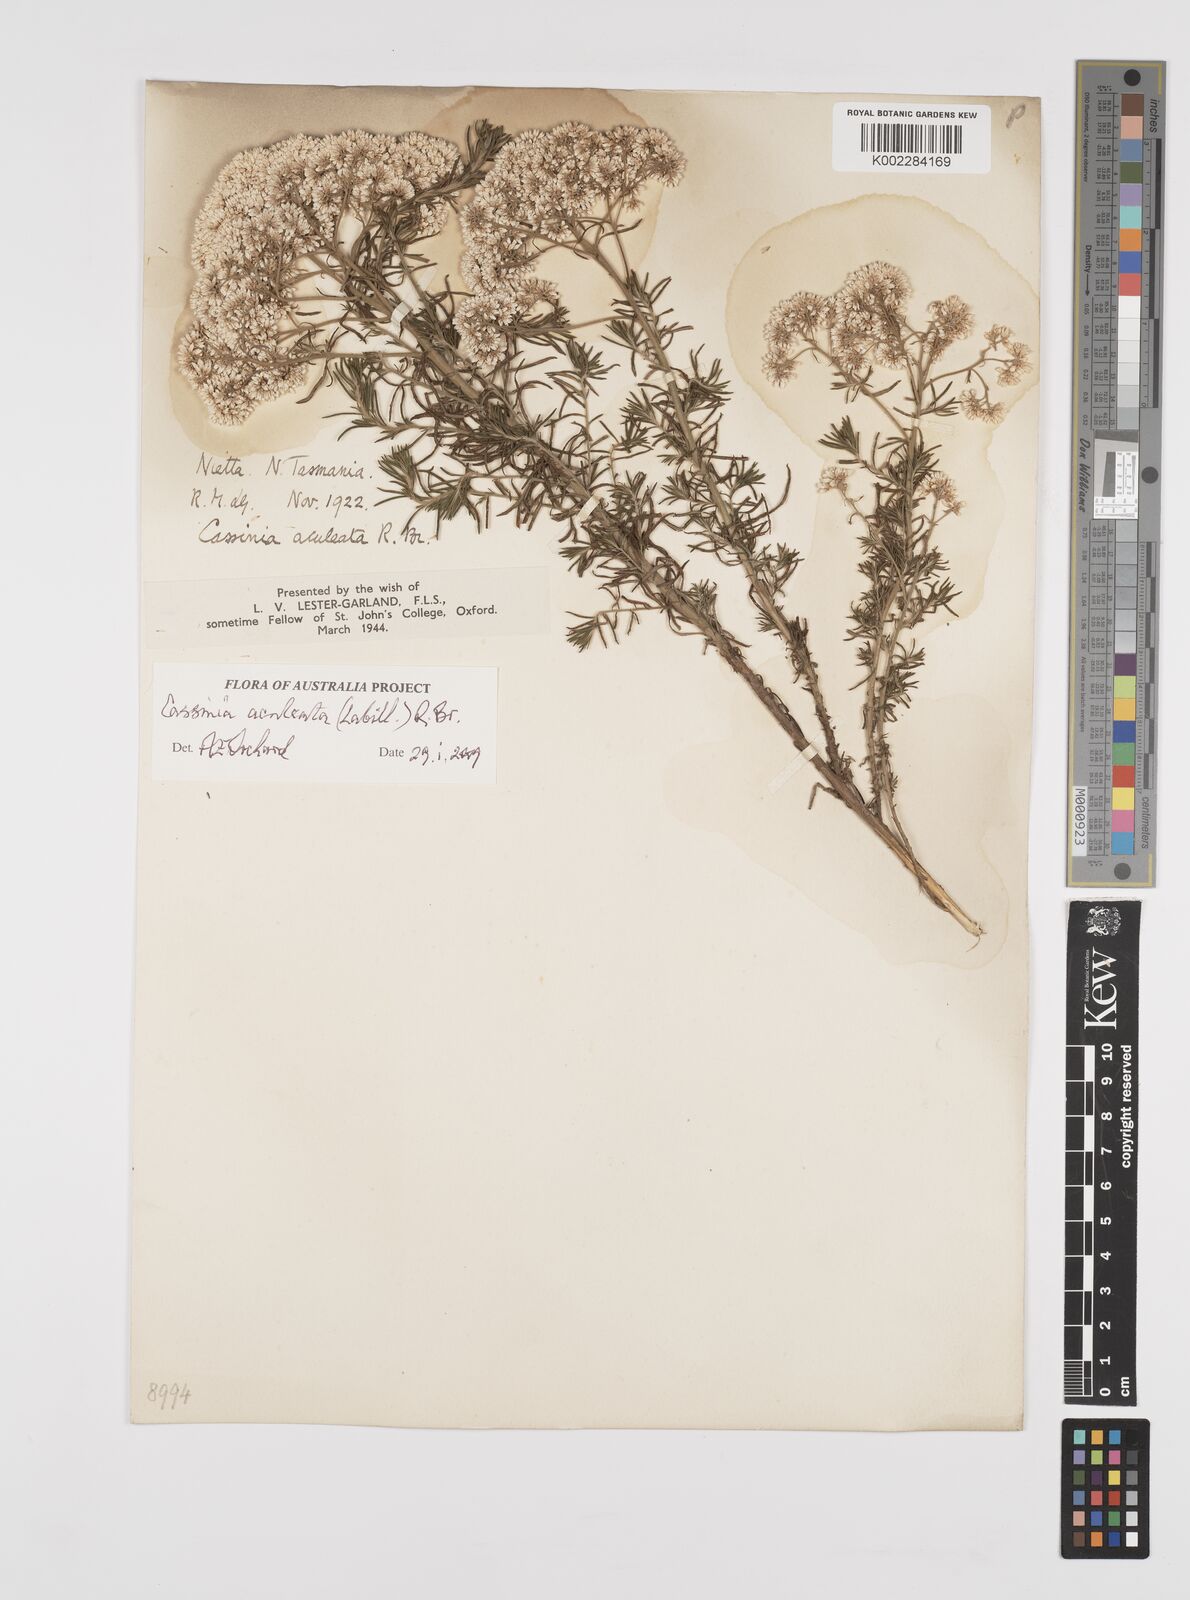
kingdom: Plantae
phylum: Tracheophyta
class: Magnoliopsida
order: Asterales
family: Asteraceae
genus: Cassinia
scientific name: Cassinia aculeata
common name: Australian tauhinu
